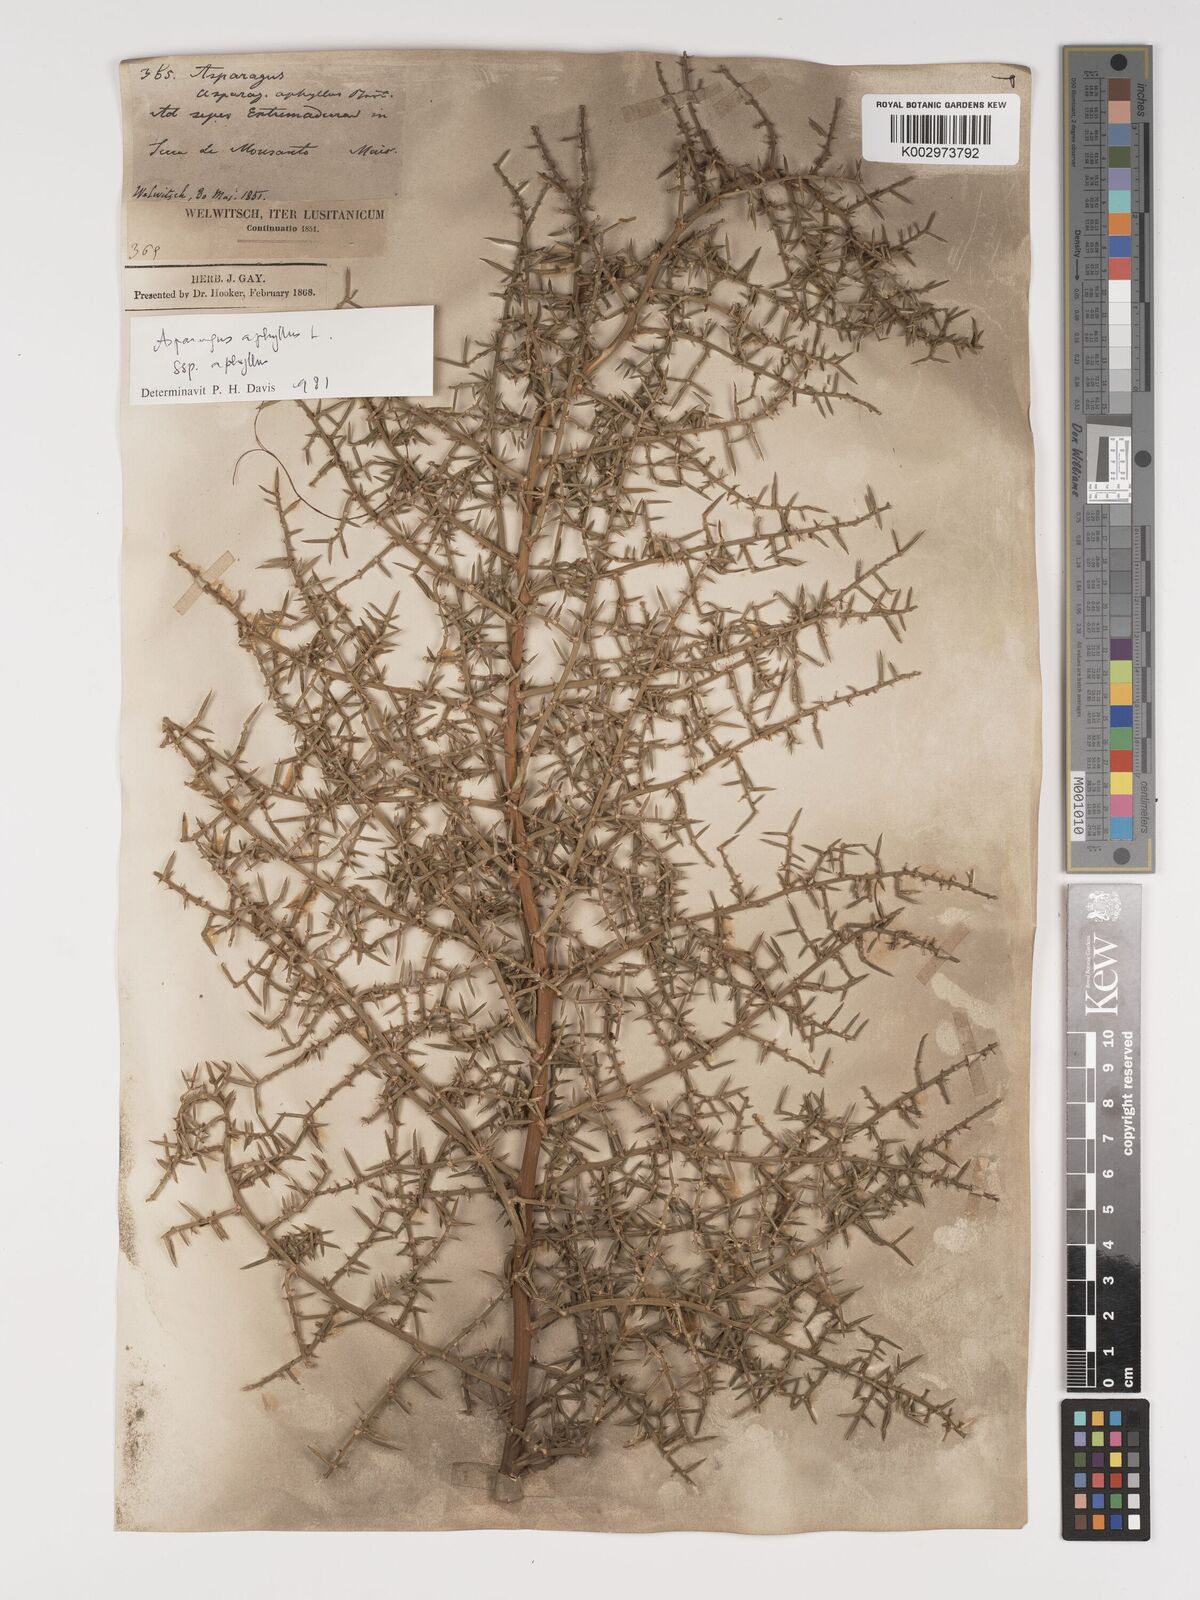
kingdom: Plantae
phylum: Tracheophyta
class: Liliopsida
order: Asparagales
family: Asparagaceae
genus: Asparagus
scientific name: Asparagus aphyllus
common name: Mediterranean asparagus
